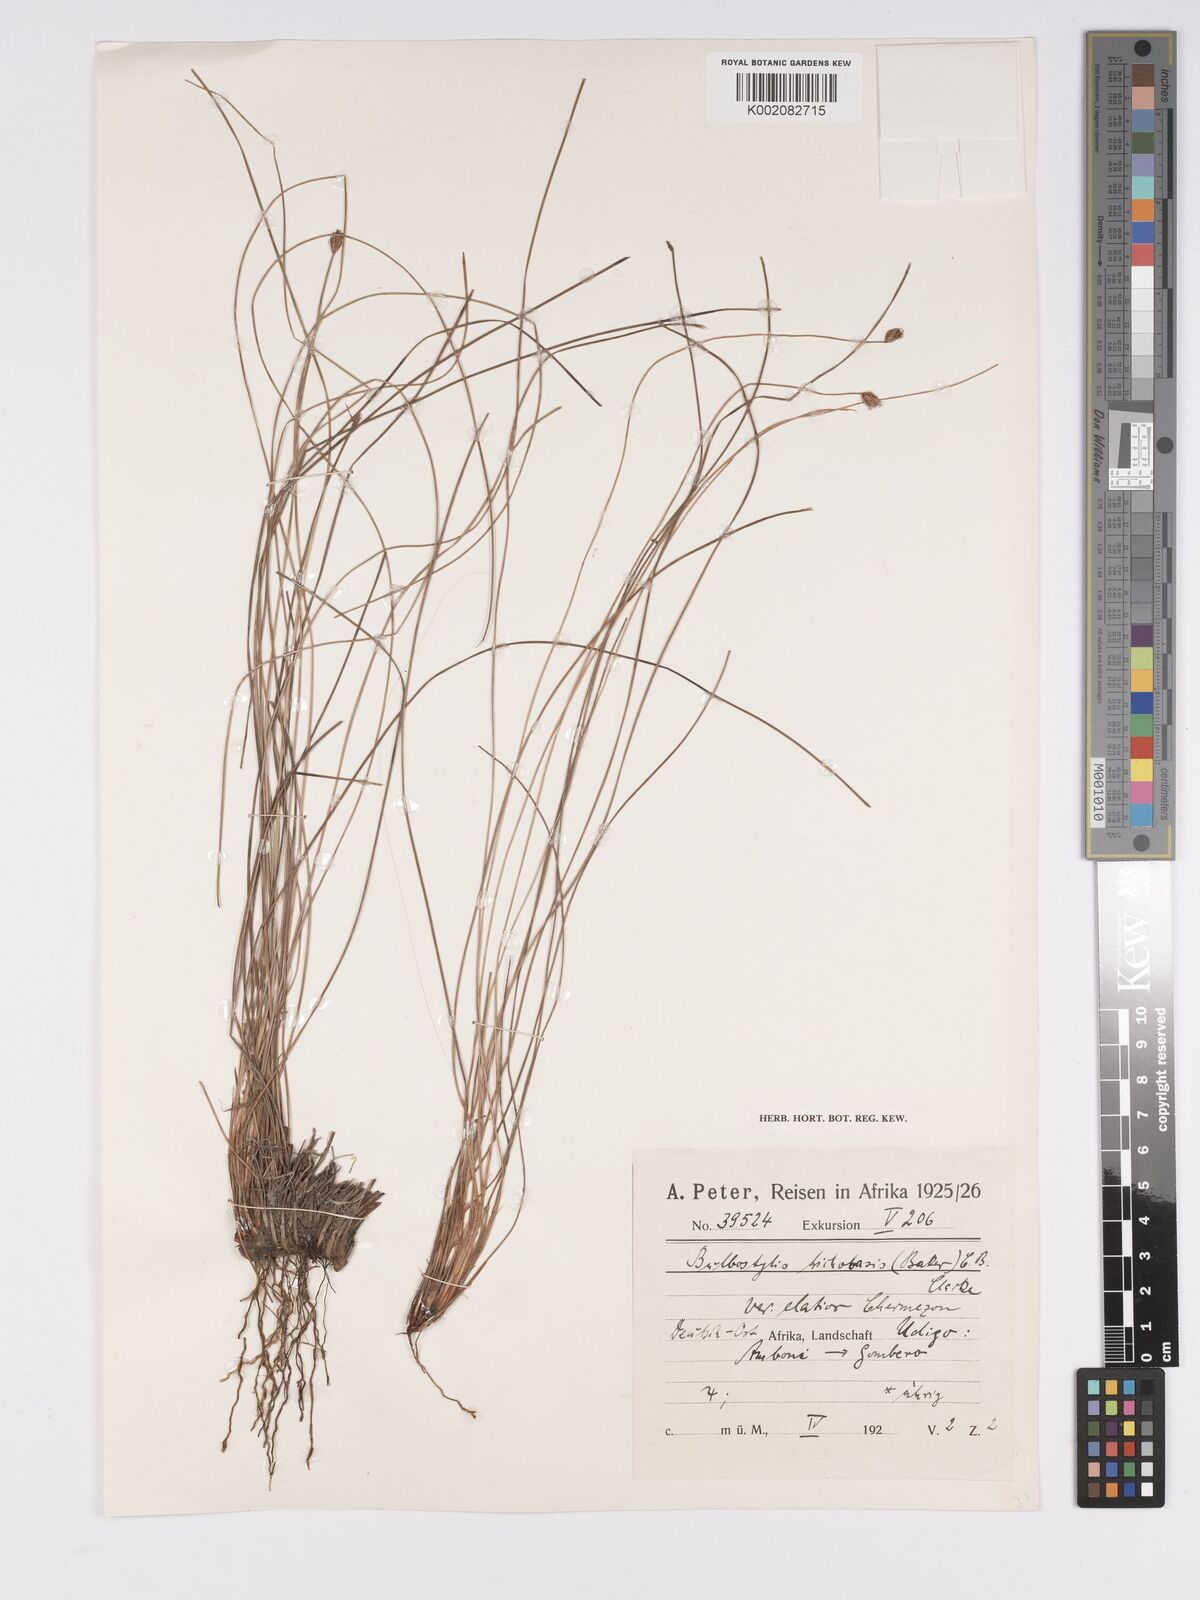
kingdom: Plantae
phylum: Tracheophyta
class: Liliopsida
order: Poales
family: Cyperaceae
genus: Bulbostylis
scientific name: Bulbostylis oritrephes
